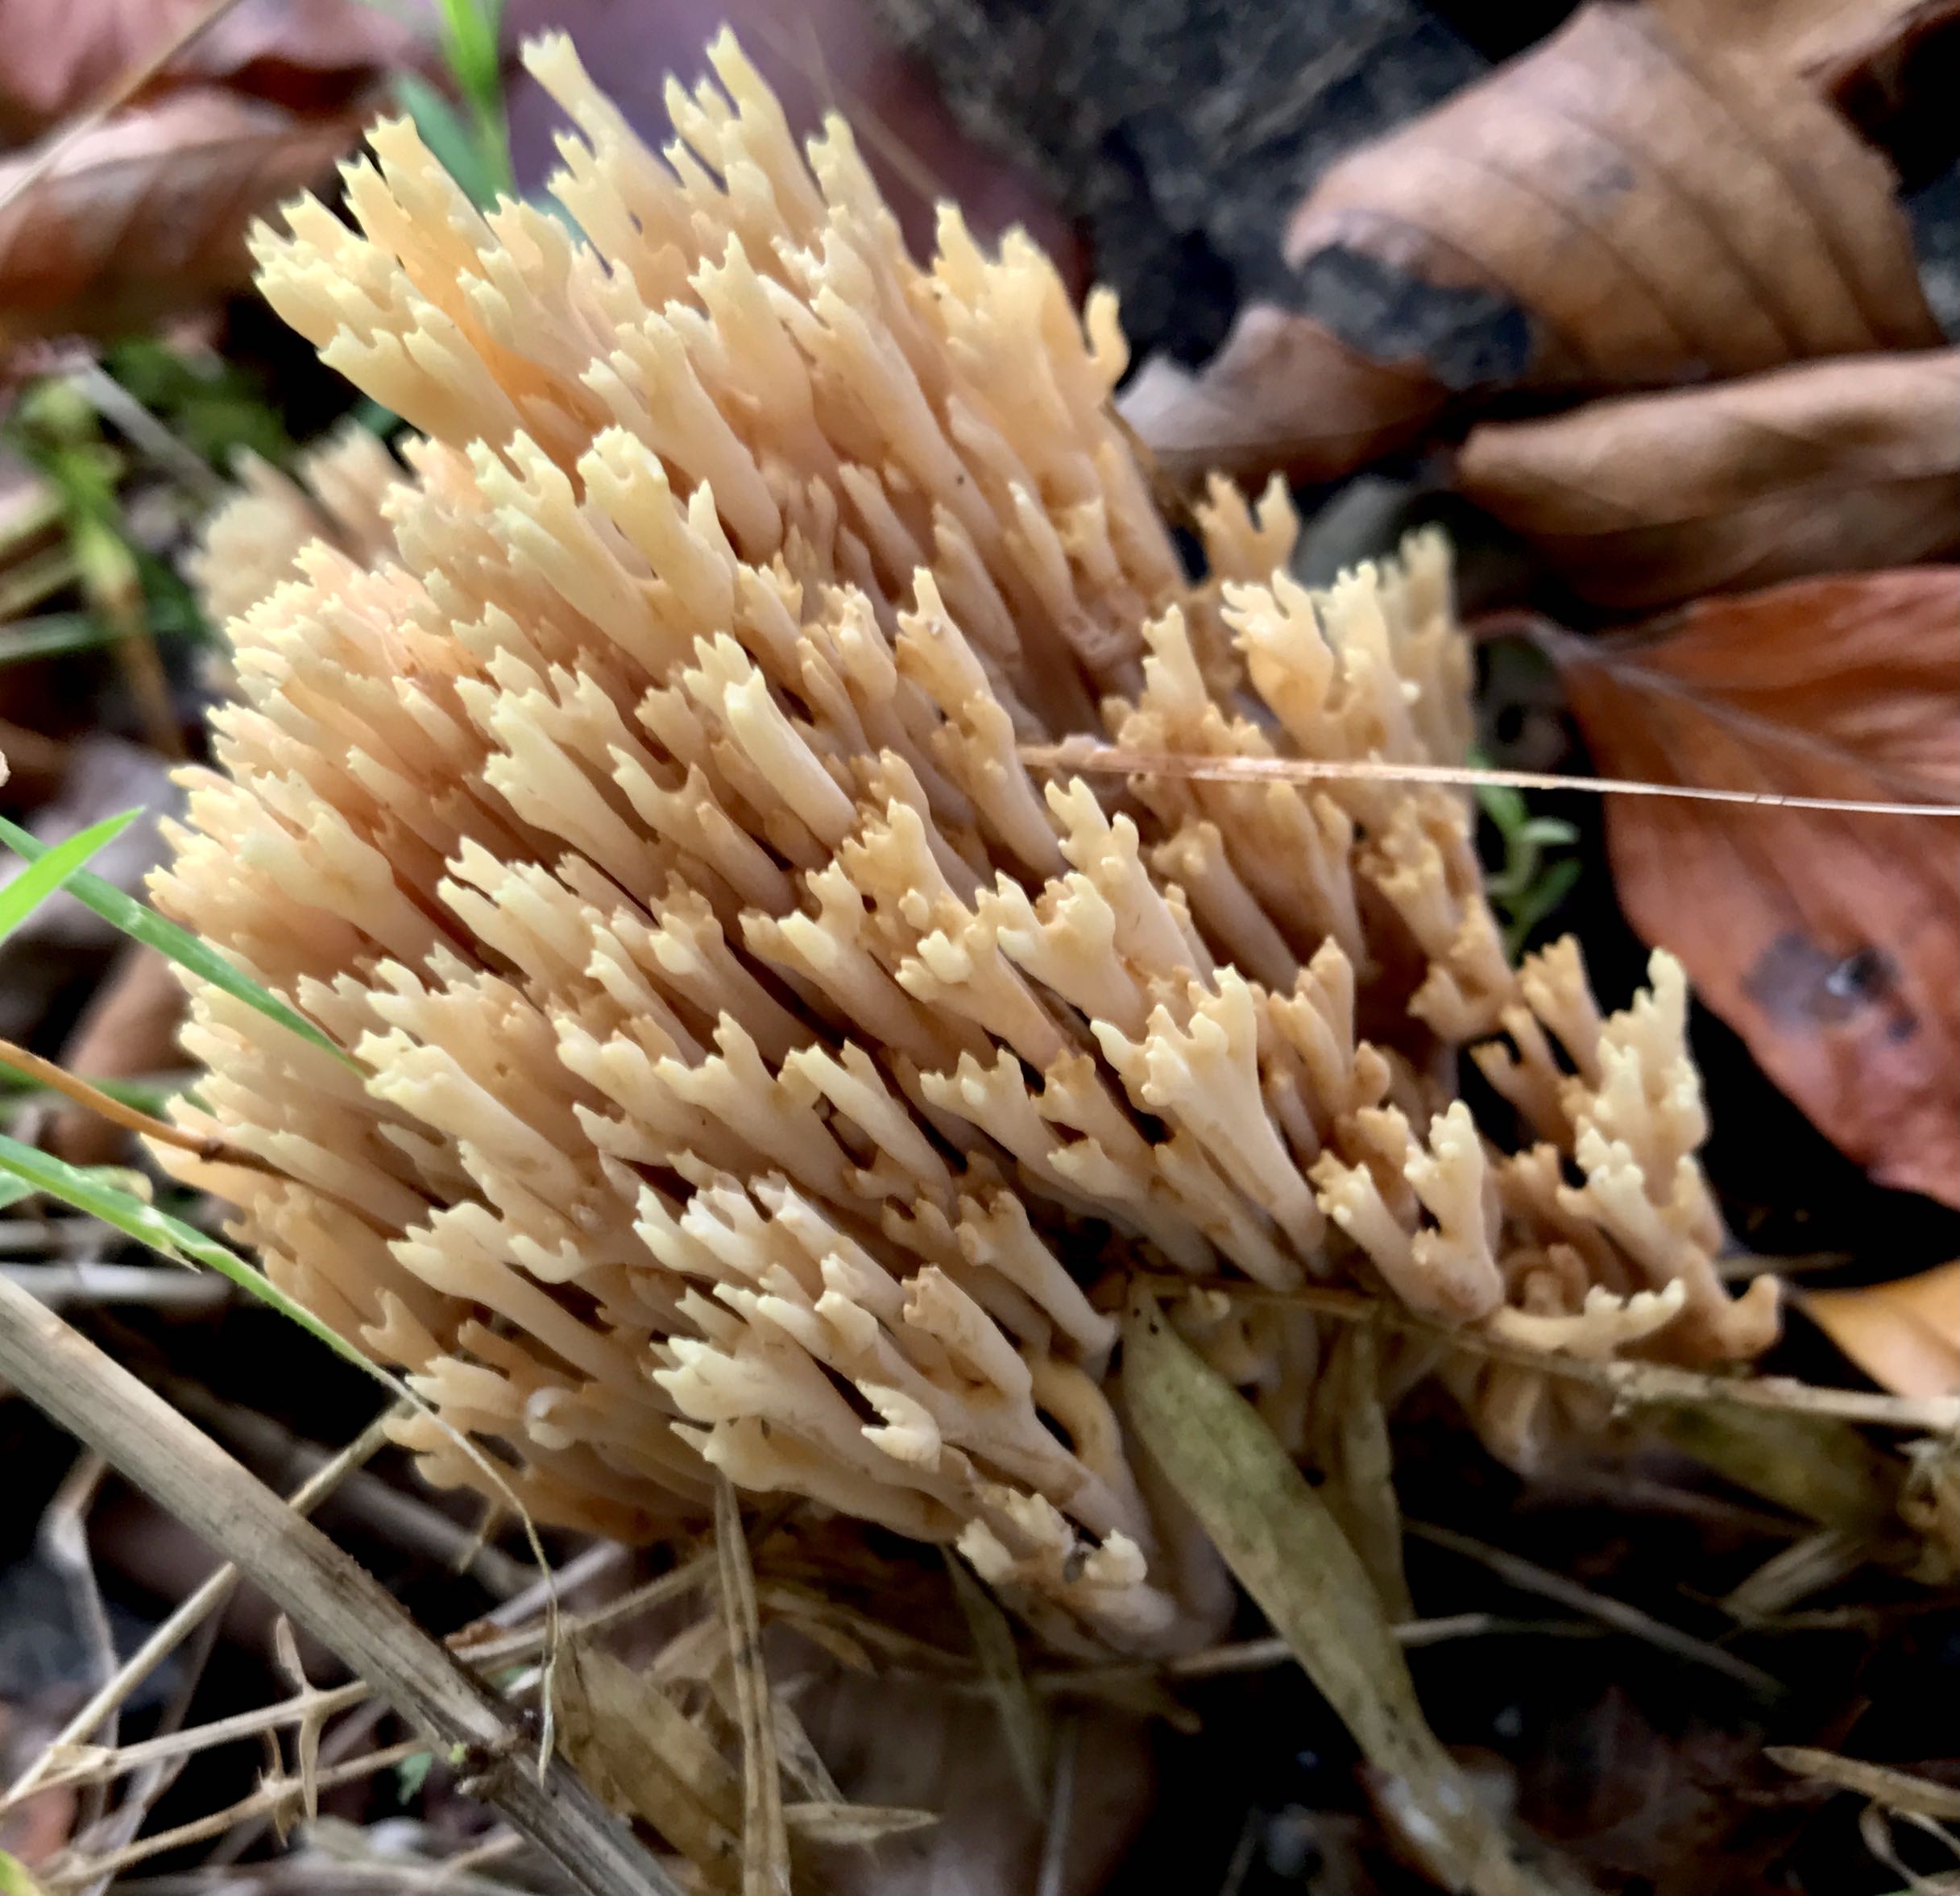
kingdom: Fungi
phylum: Basidiomycota
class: Agaricomycetes
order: Gomphales
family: Gomphaceae
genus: Ramaria
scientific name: Ramaria stricta
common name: rank koralsvamp
